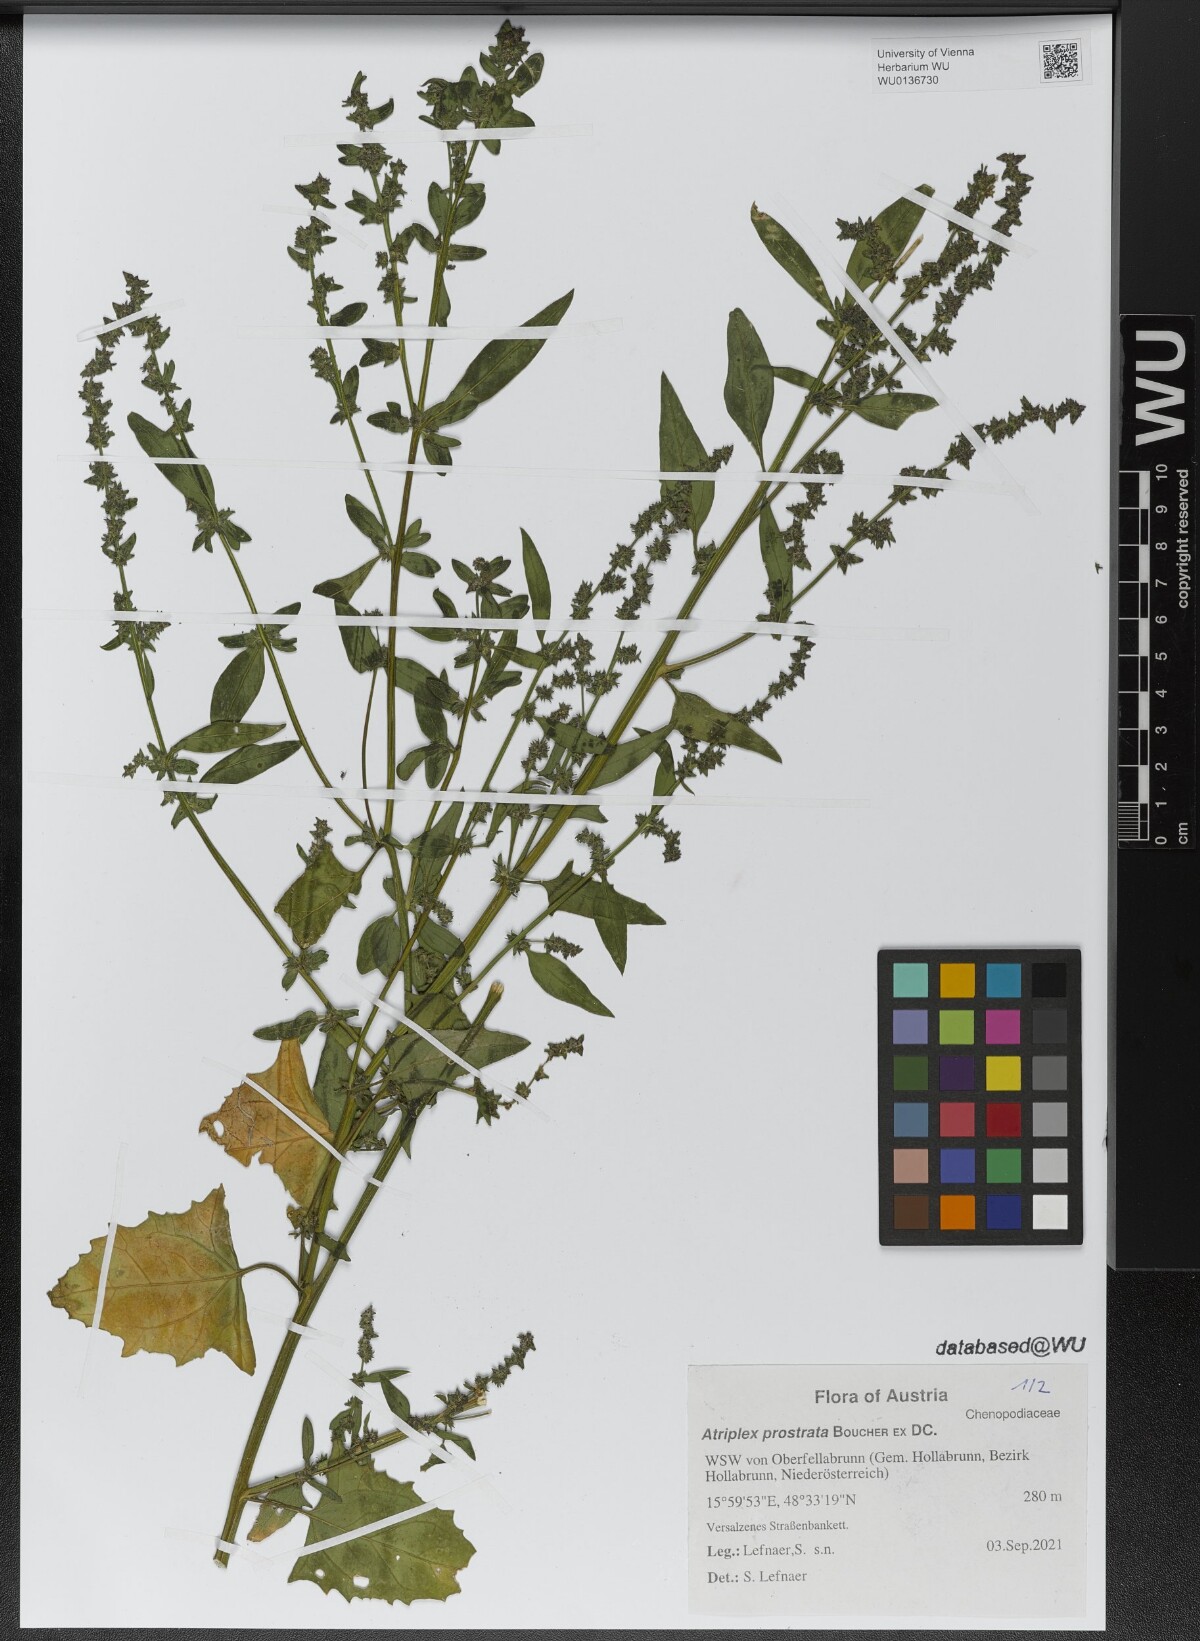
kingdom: Plantae
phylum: Tracheophyta
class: Magnoliopsida
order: Caryophyllales
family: Amaranthaceae
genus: Atriplex
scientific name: Atriplex prostrata
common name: Spear-leaved orache
